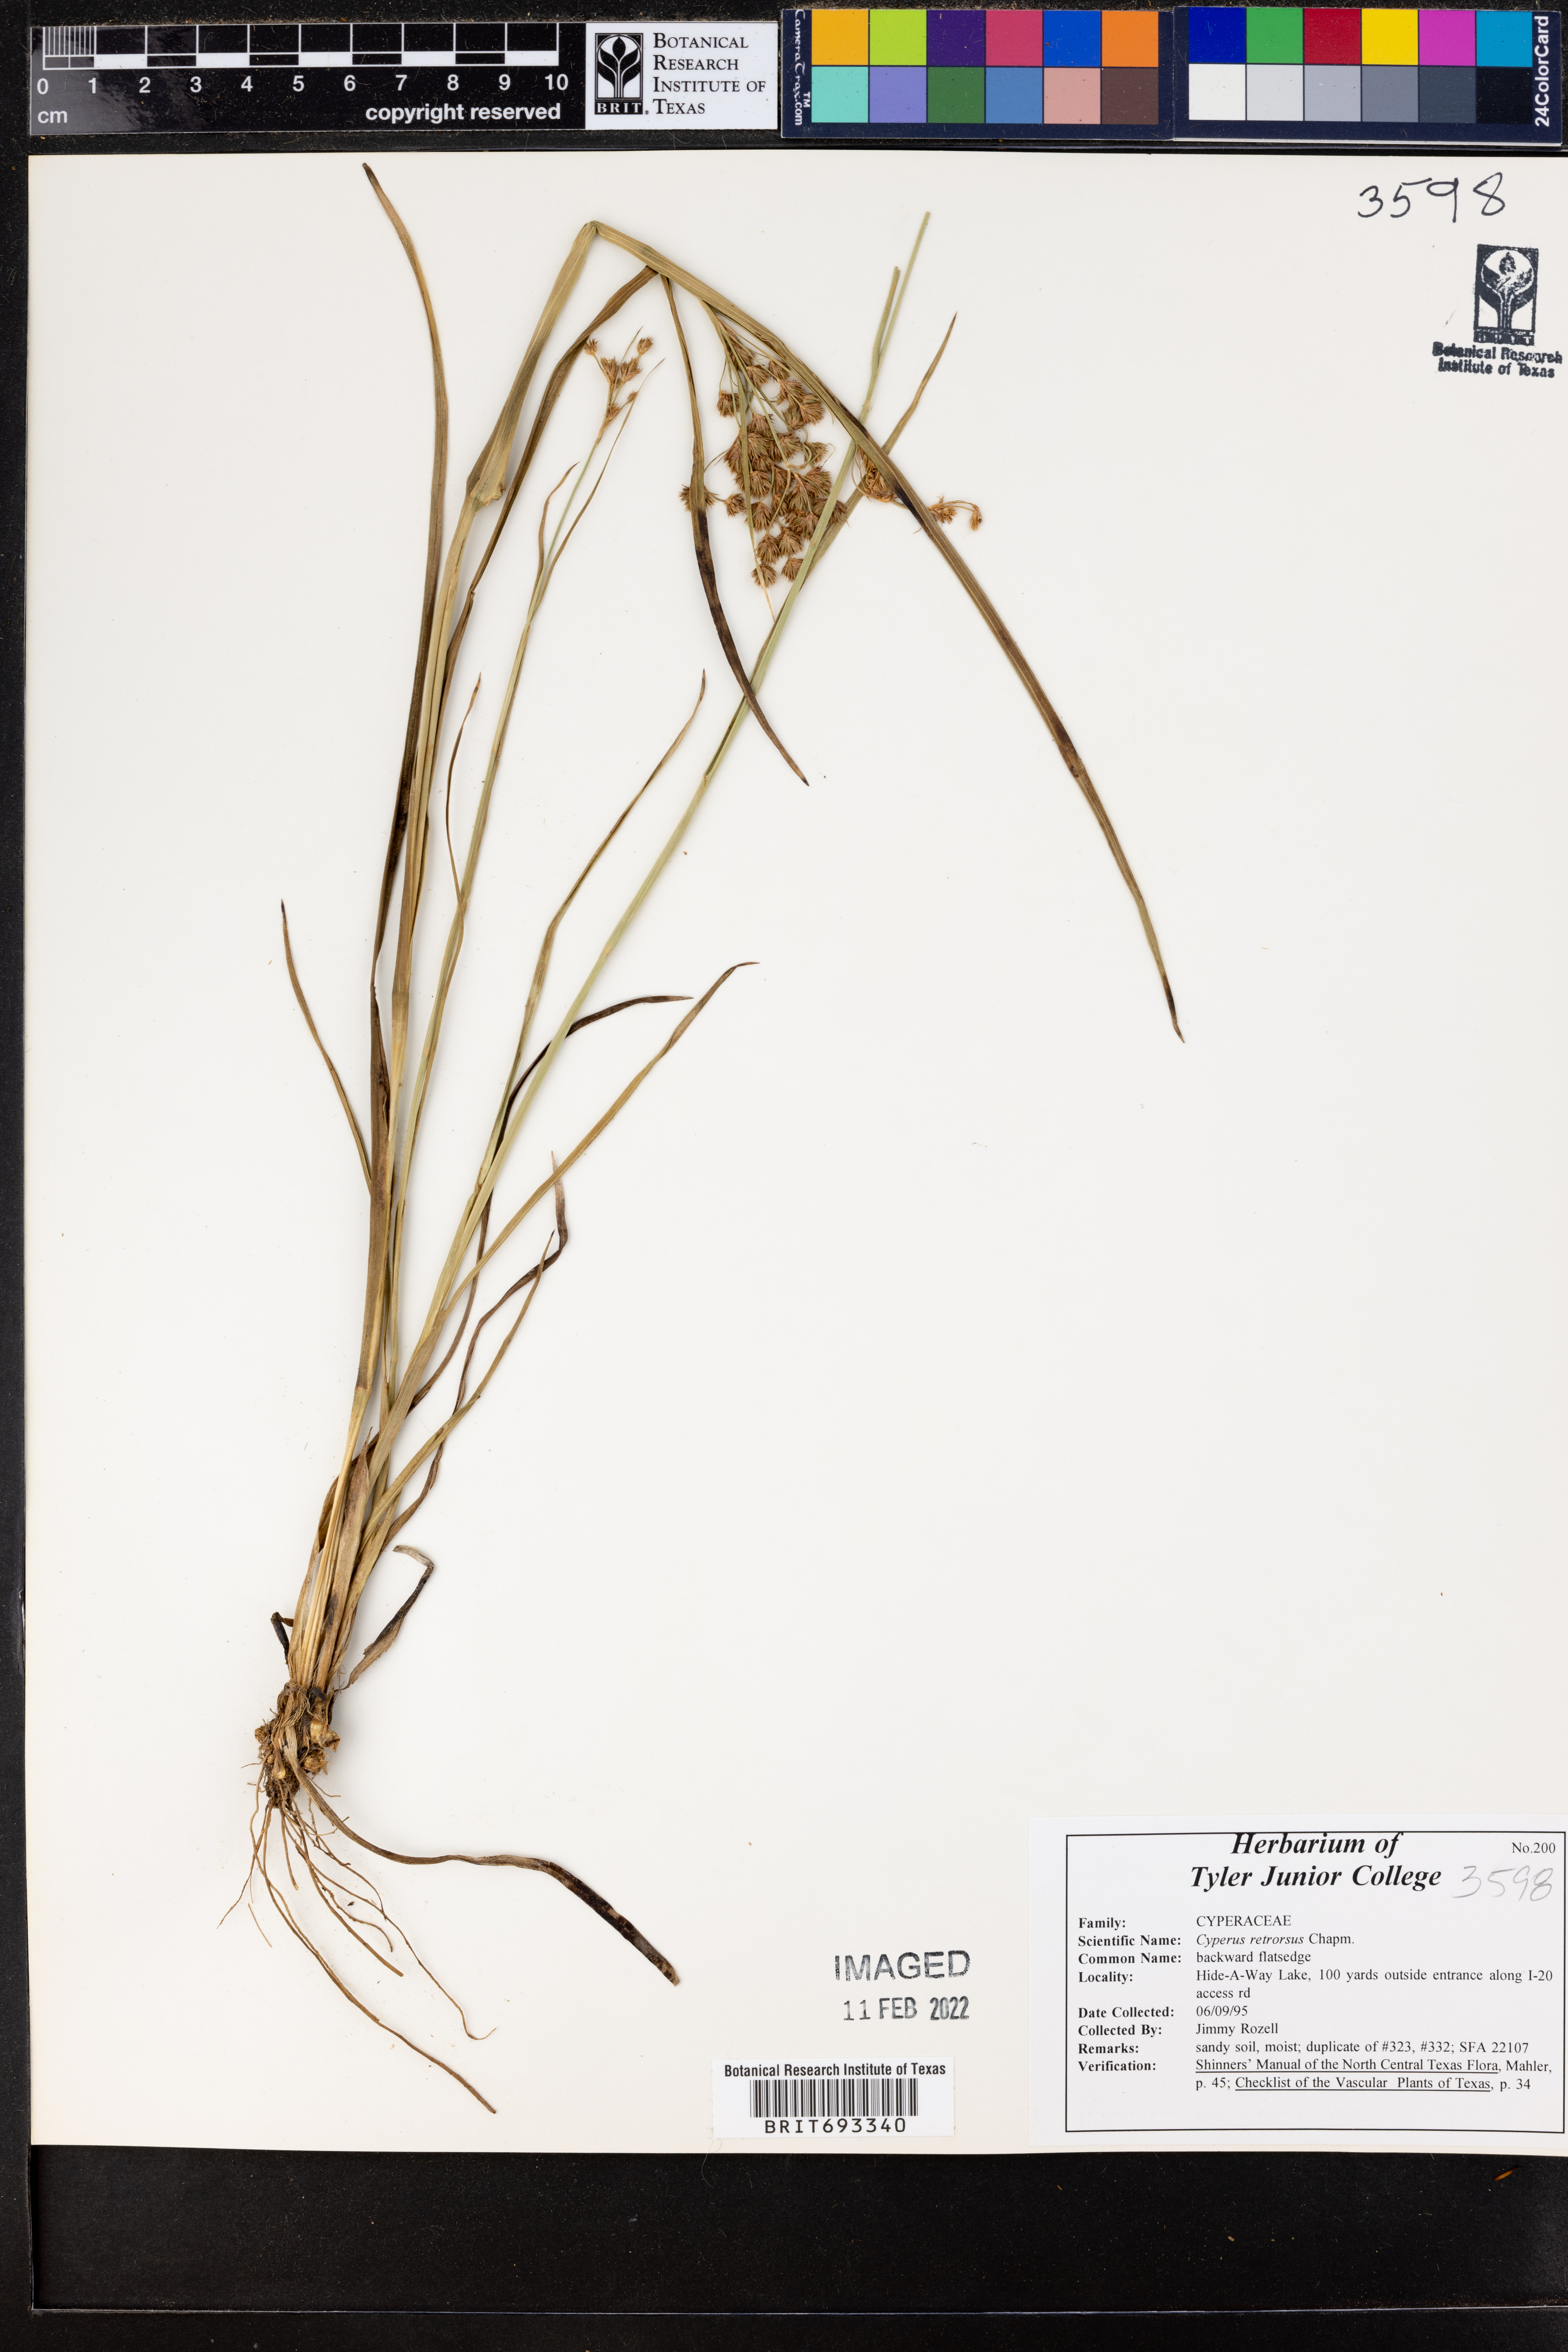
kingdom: Plantae
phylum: Tracheophyta
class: Liliopsida
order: Poales
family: Cyperaceae
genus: Cyperus
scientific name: Cyperus retrorsus
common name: Pinebarren flat sedge
